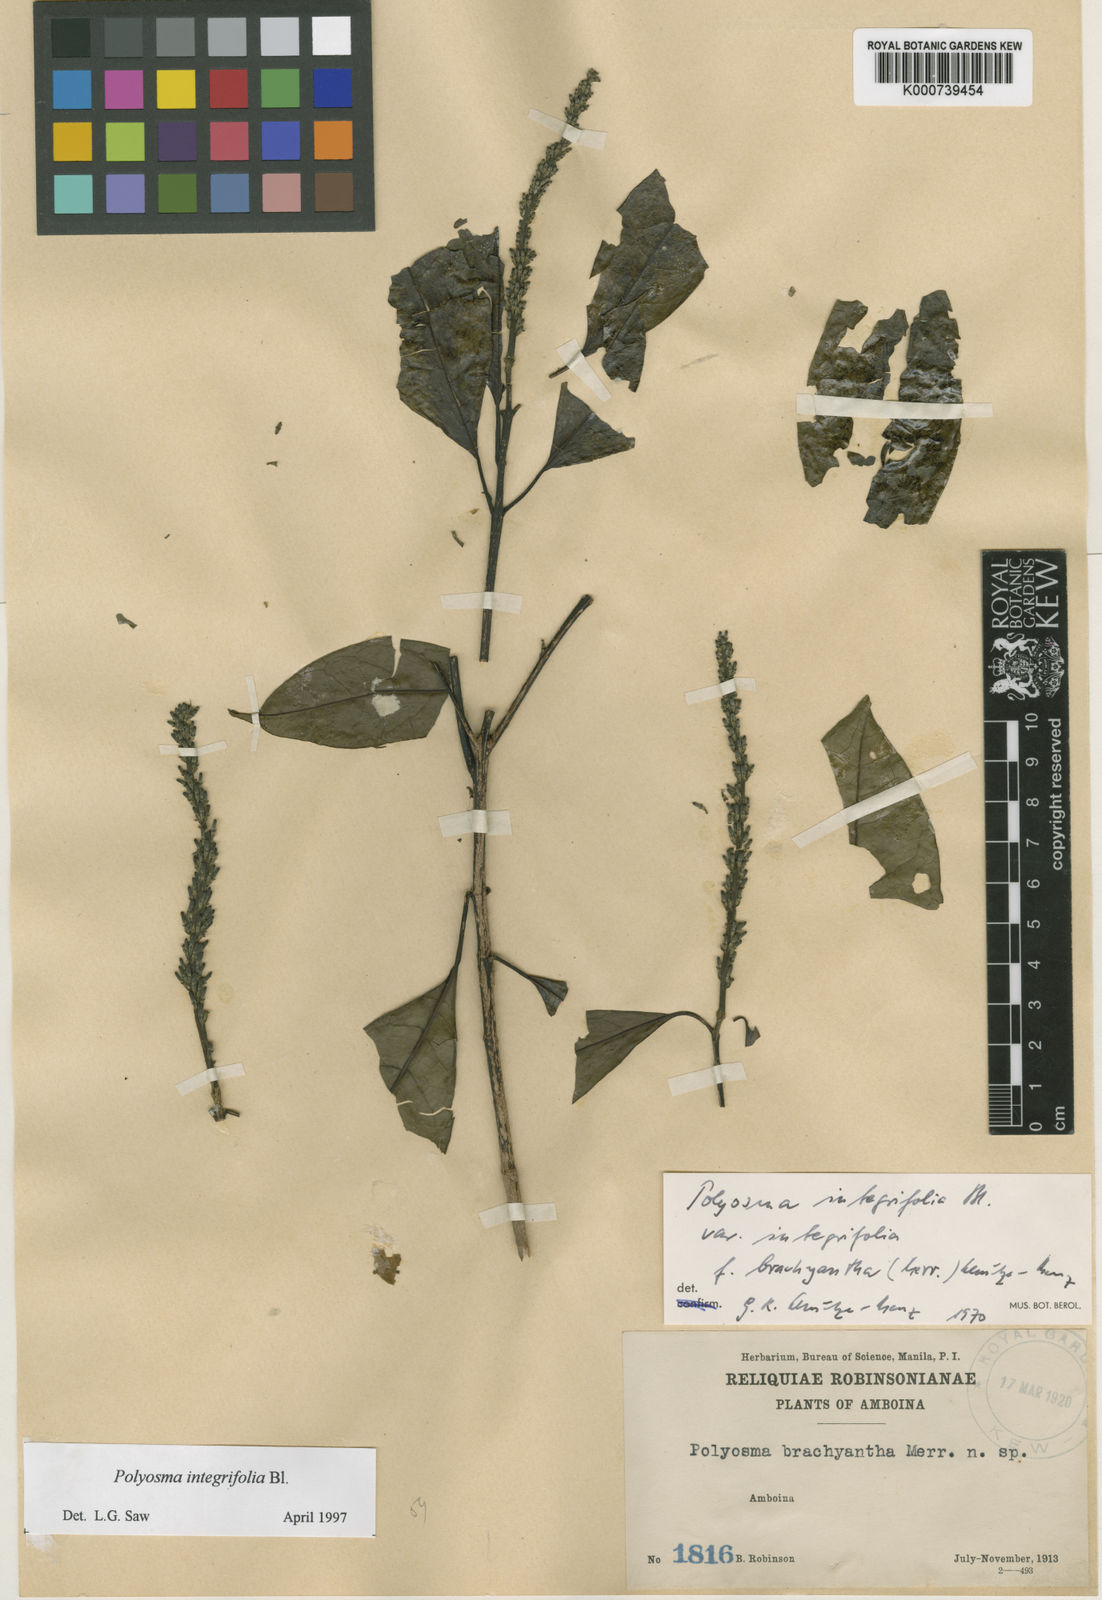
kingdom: Plantae
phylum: Tracheophyta
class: Magnoliopsida
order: Escalloniales
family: Escalloniaceae
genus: Polyosma
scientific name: Polyosma integrifolia
